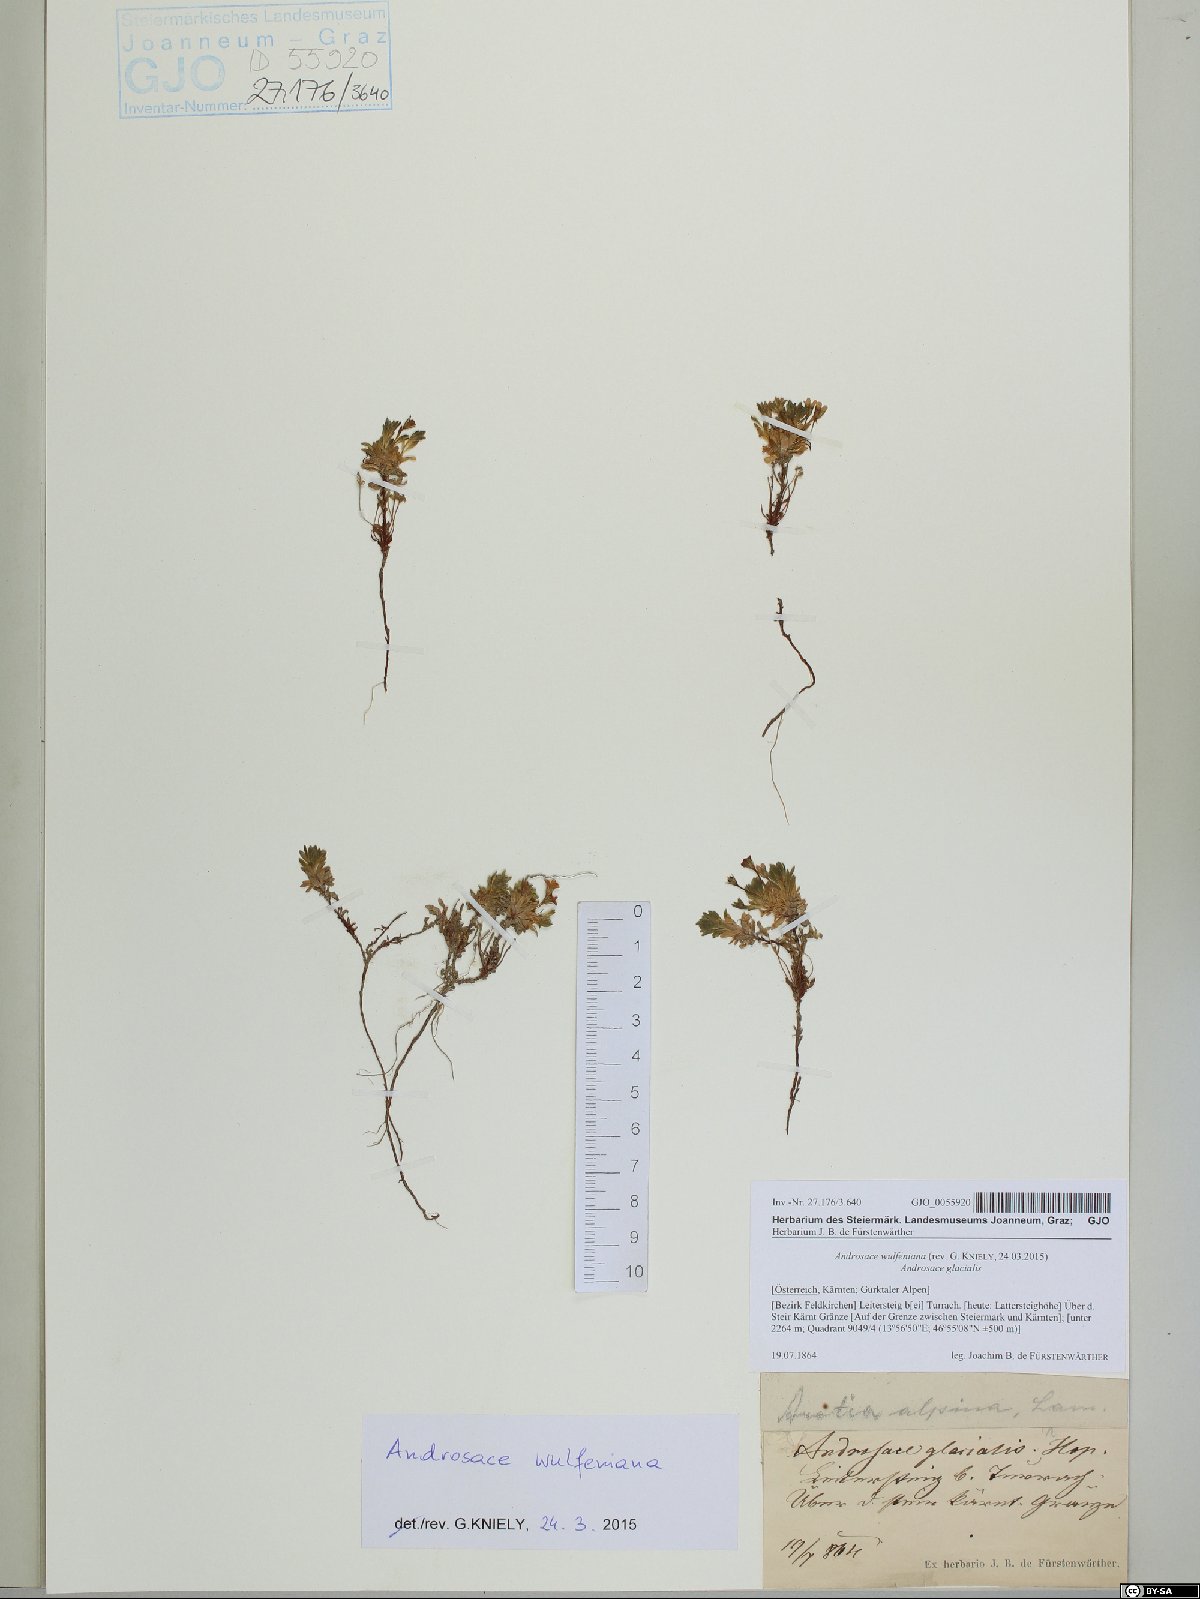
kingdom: Plantae
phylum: Tracheophyta
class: Magnoliopsida
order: Ericales
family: Primulaceae
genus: Androsace
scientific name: Androsace wulfeniana
